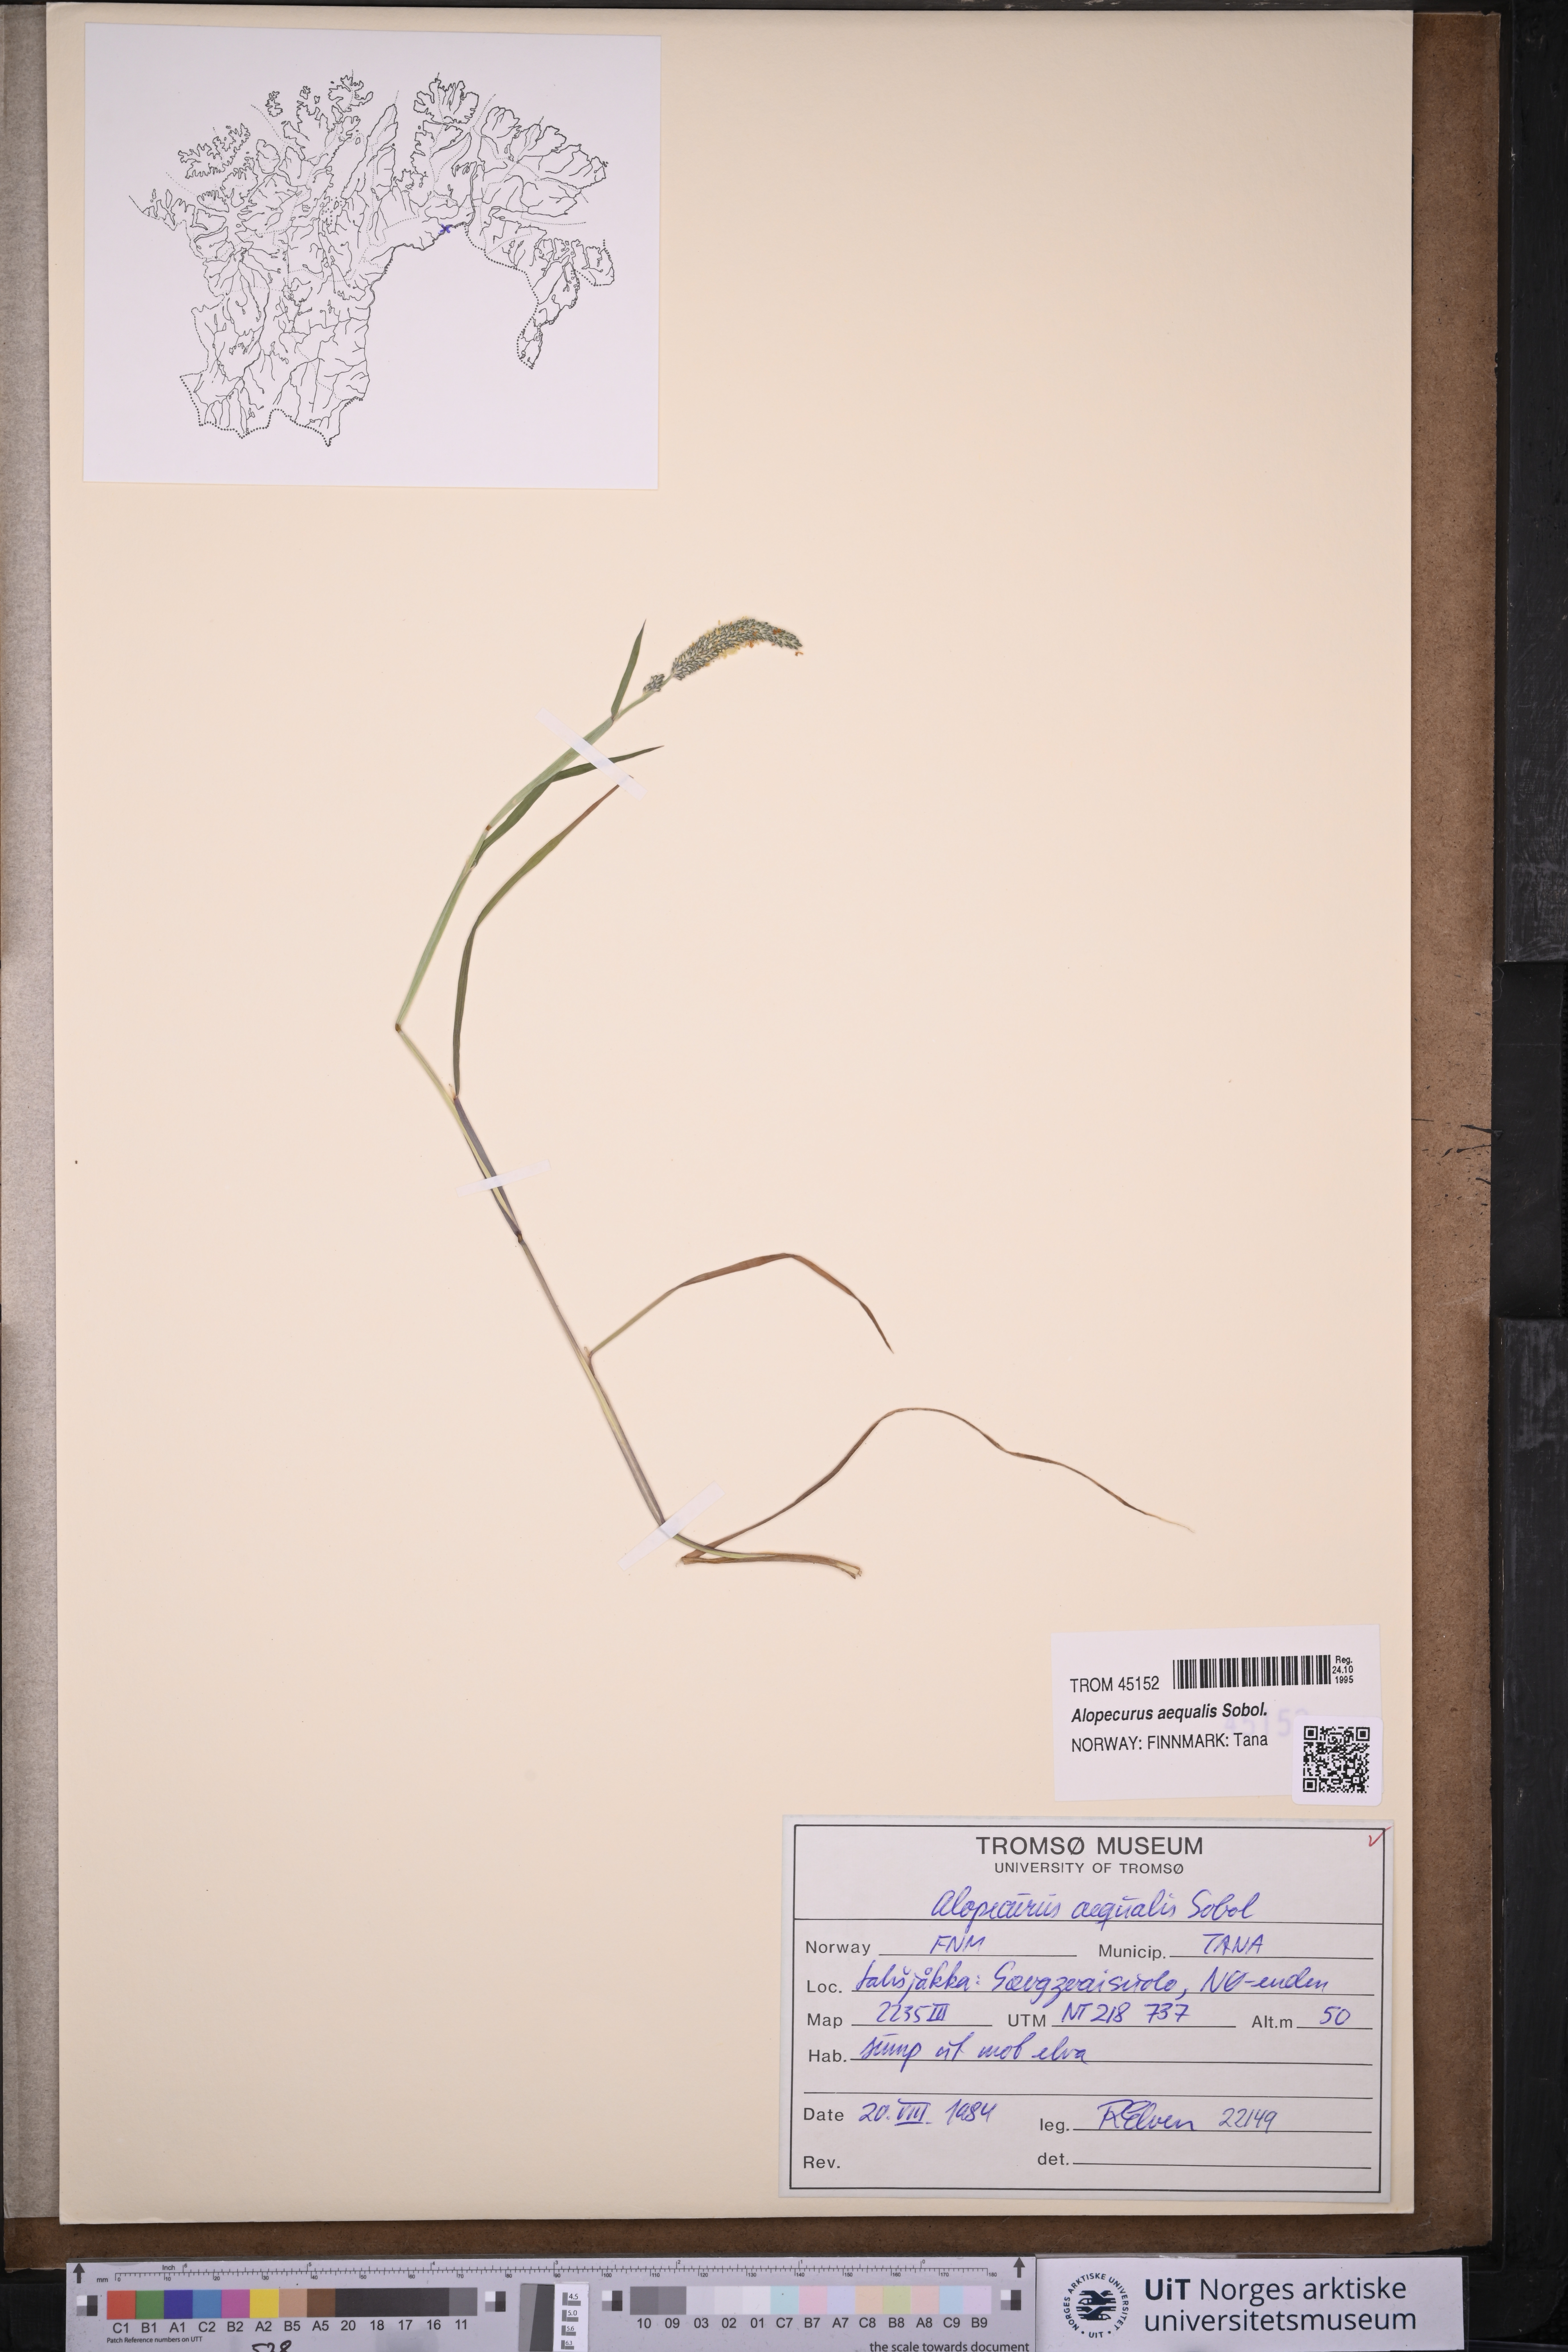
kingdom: Plantae
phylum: Tracheophyta
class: Liliopsida
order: Poales
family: Poaceae
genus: Alopecurus
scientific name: Alopecurus aequalis
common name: Orange foxtail
